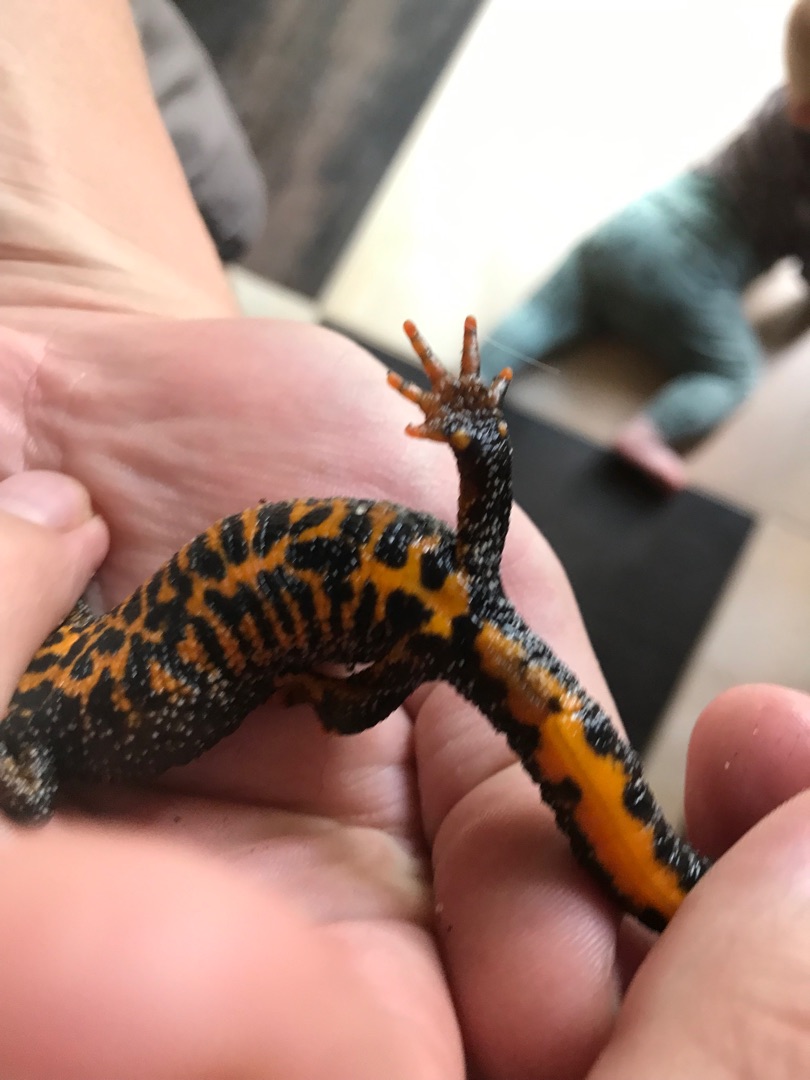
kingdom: Animalia
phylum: Chordata
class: Amphibia
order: Caudata
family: Salamandridae
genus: Triturus
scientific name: Triturus cristatus
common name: Stor vandsalamander
